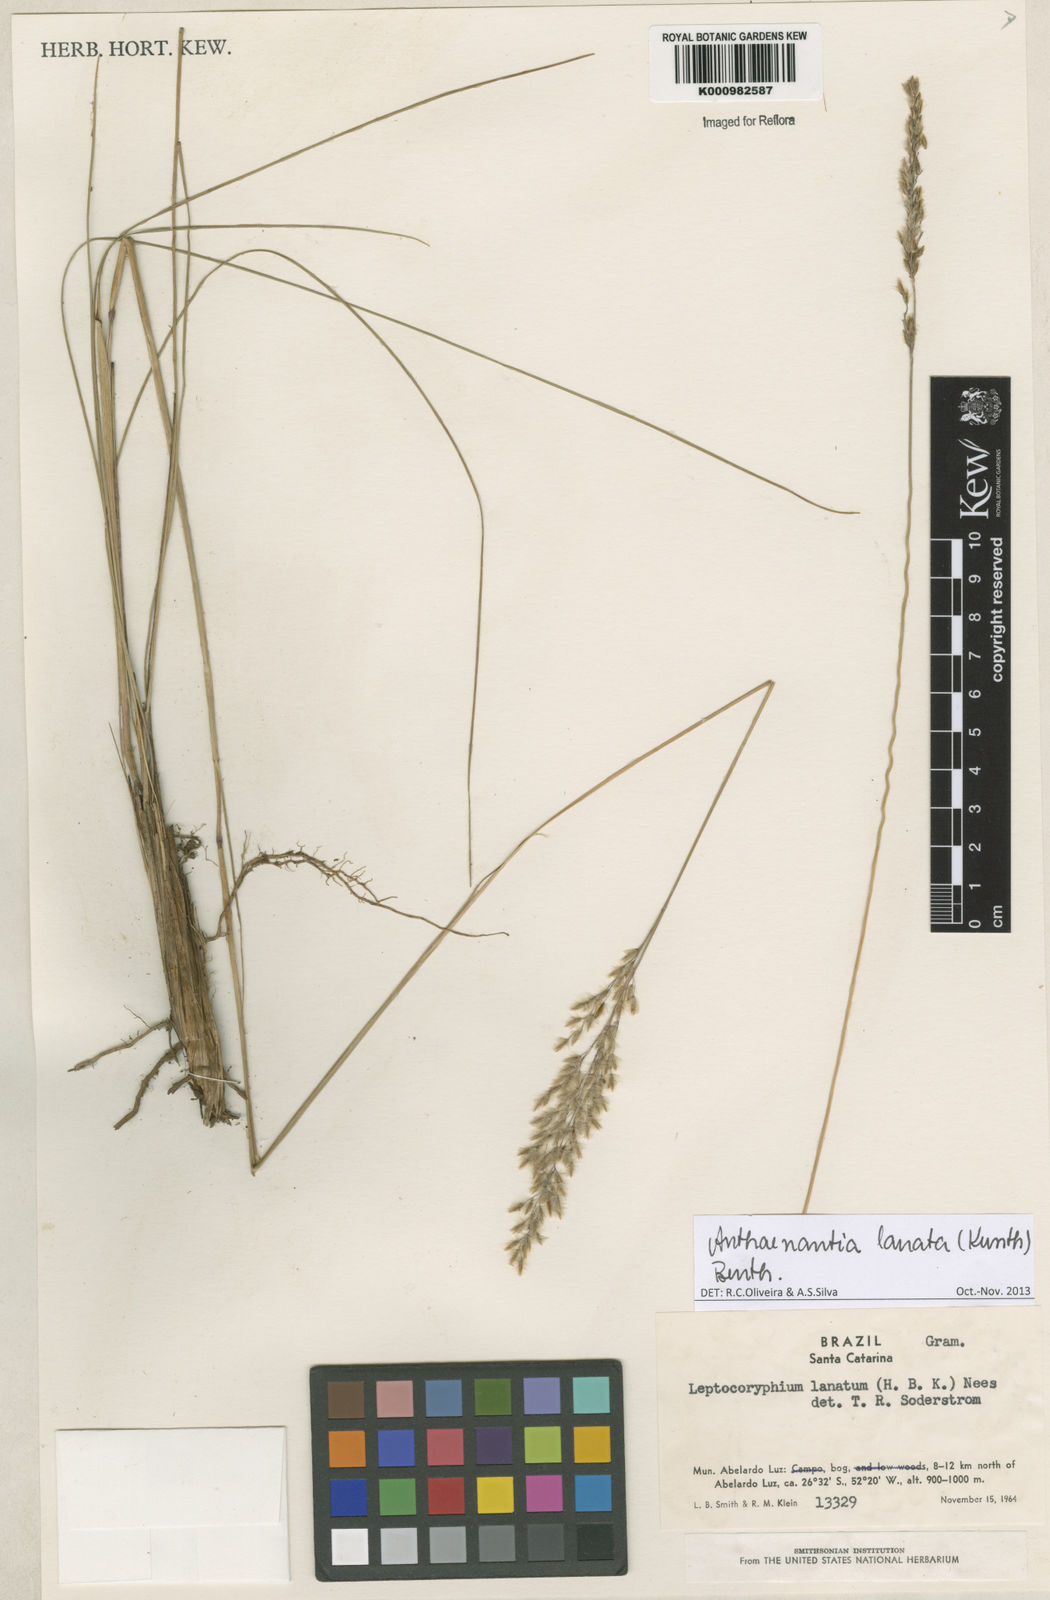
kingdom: Plantae
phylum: Tracheophyta
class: Liliopsida
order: Poales
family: Poaceae
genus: Anthenantia
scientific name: Anthenantia lanata
